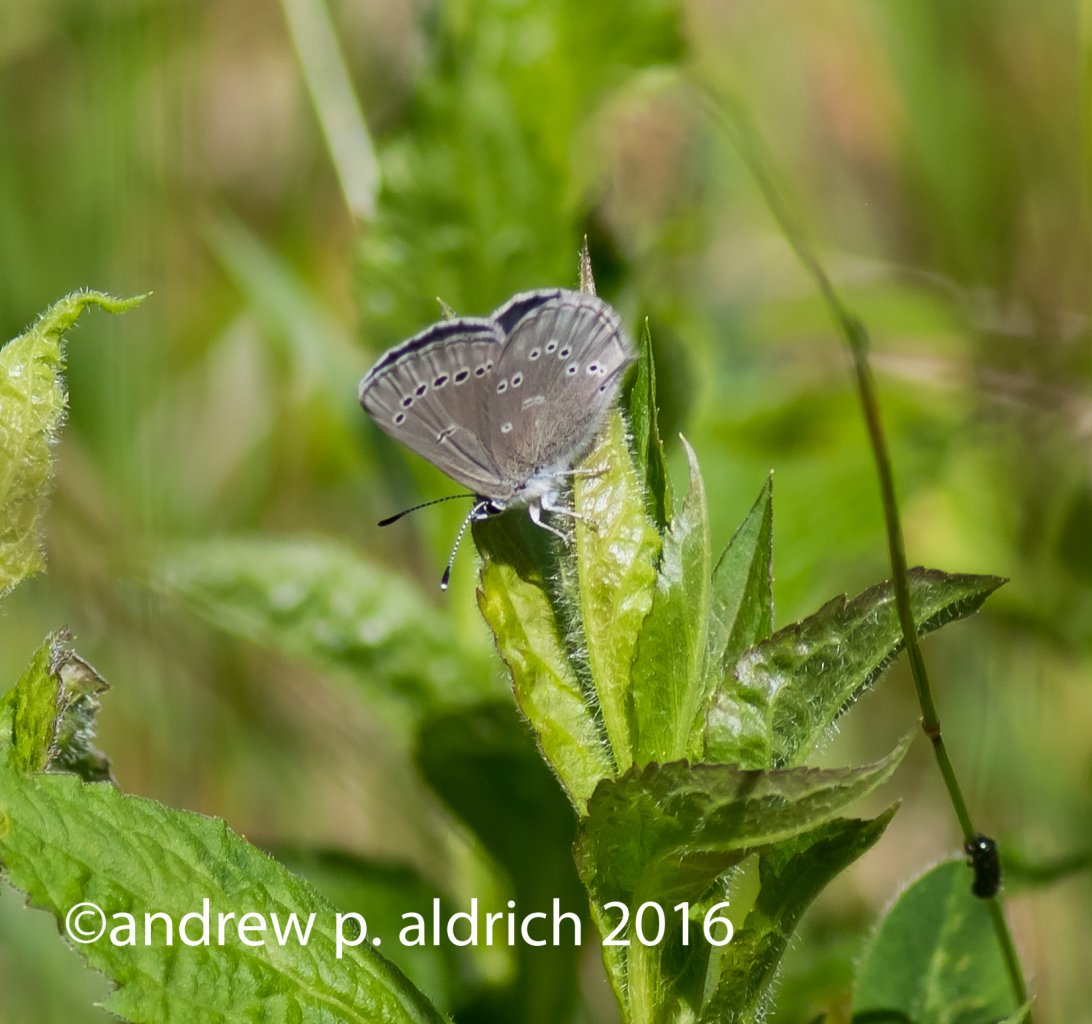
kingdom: Animalia
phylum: Arthropoda
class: Insecta
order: Lepidoptera
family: Lycaenidae
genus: Glaucopsyche
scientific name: Glaucopsyche lygdamus
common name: Silvery Blue
